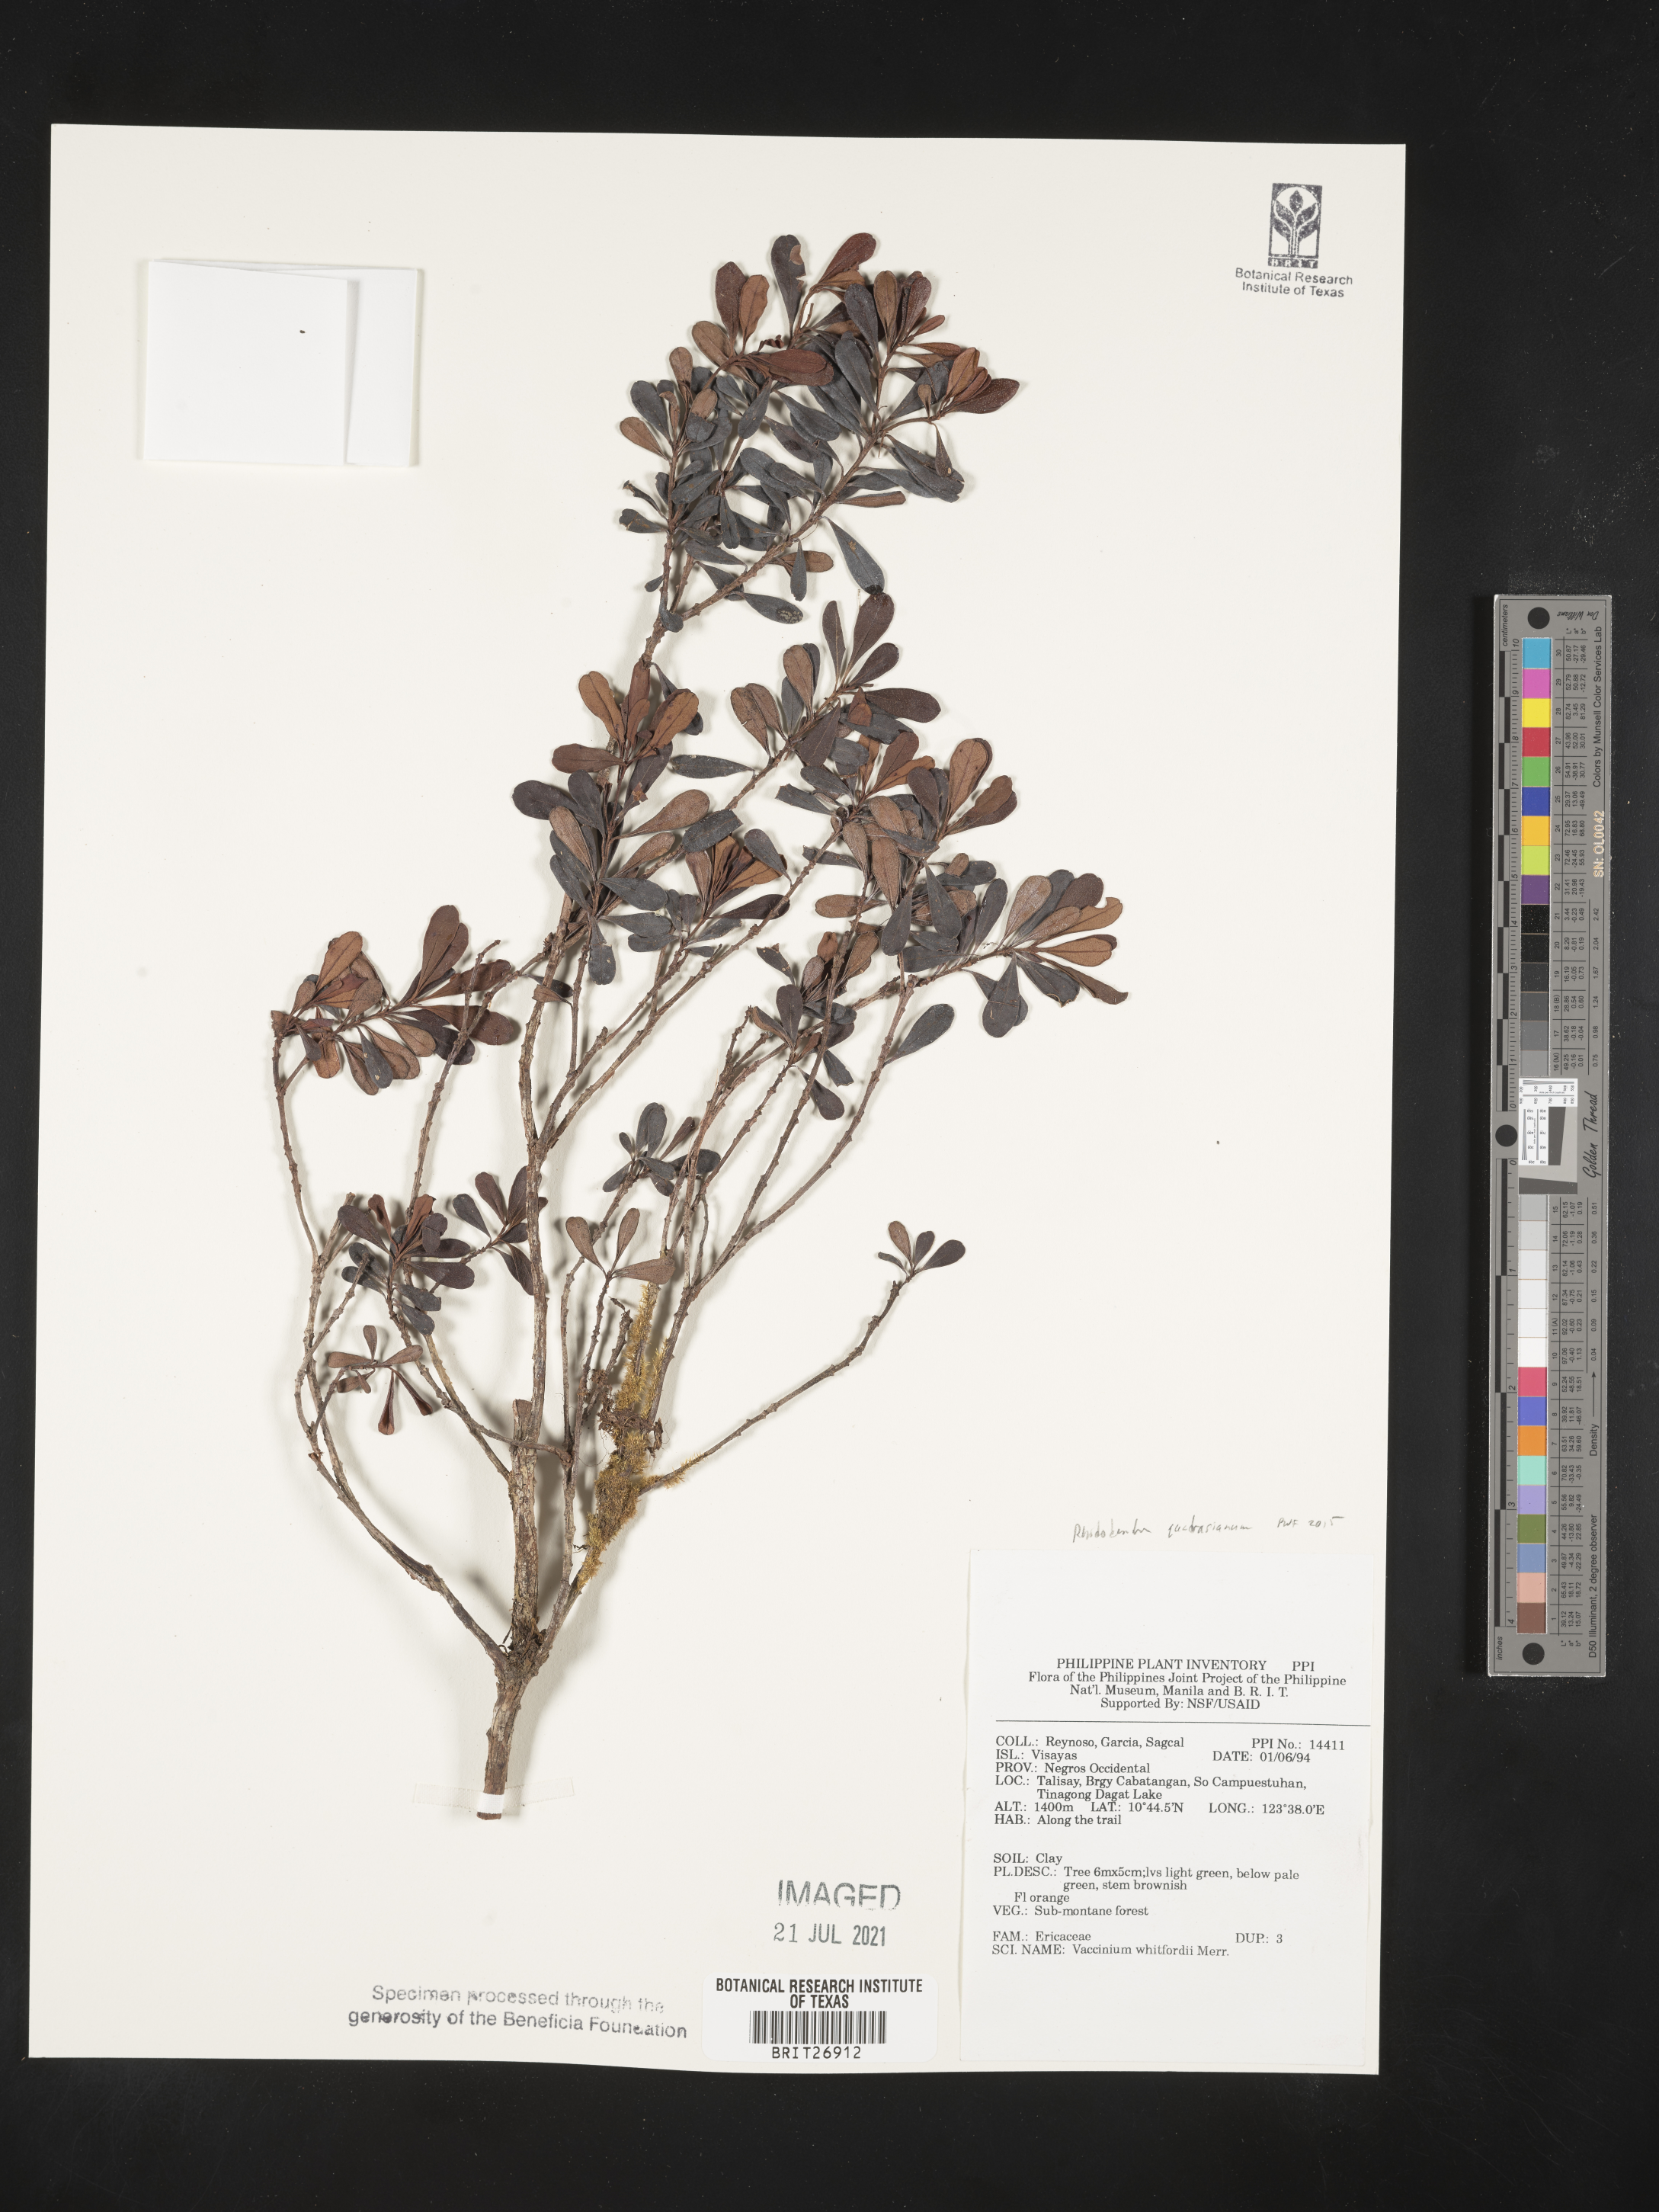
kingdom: Plantae
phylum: Tracheophyta
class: Magnoliopsida
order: Ericales
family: Ericaceae
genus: Rhododendron
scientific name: Rhododendron quadrasianum
